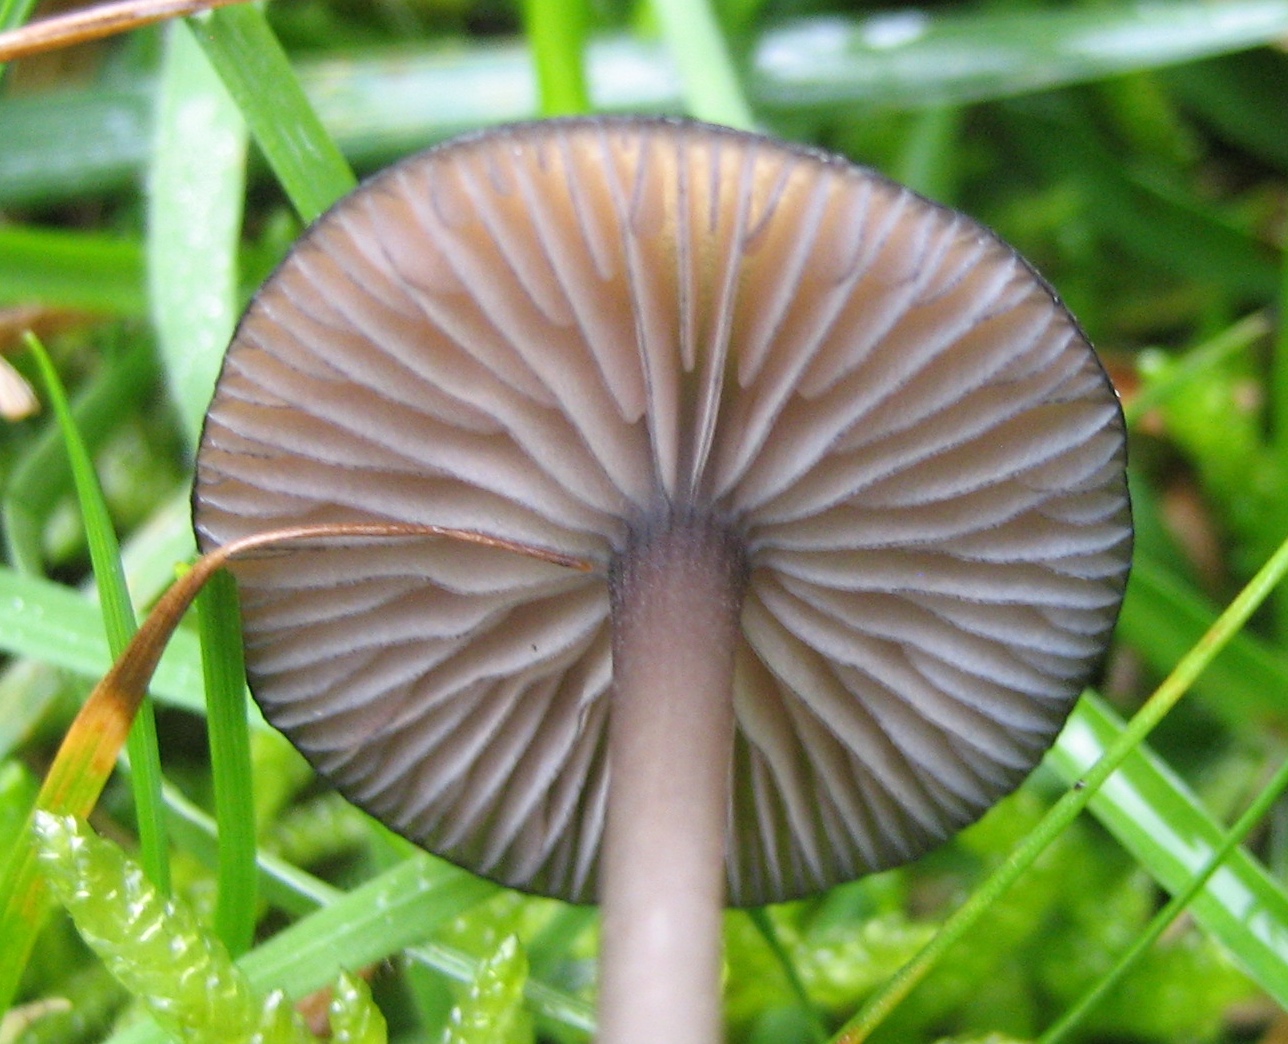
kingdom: Fungi
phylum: Basidiomycota
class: Agaricomycetes
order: Agaricales
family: Entolomataceae
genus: Entoloma
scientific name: Entoloma
